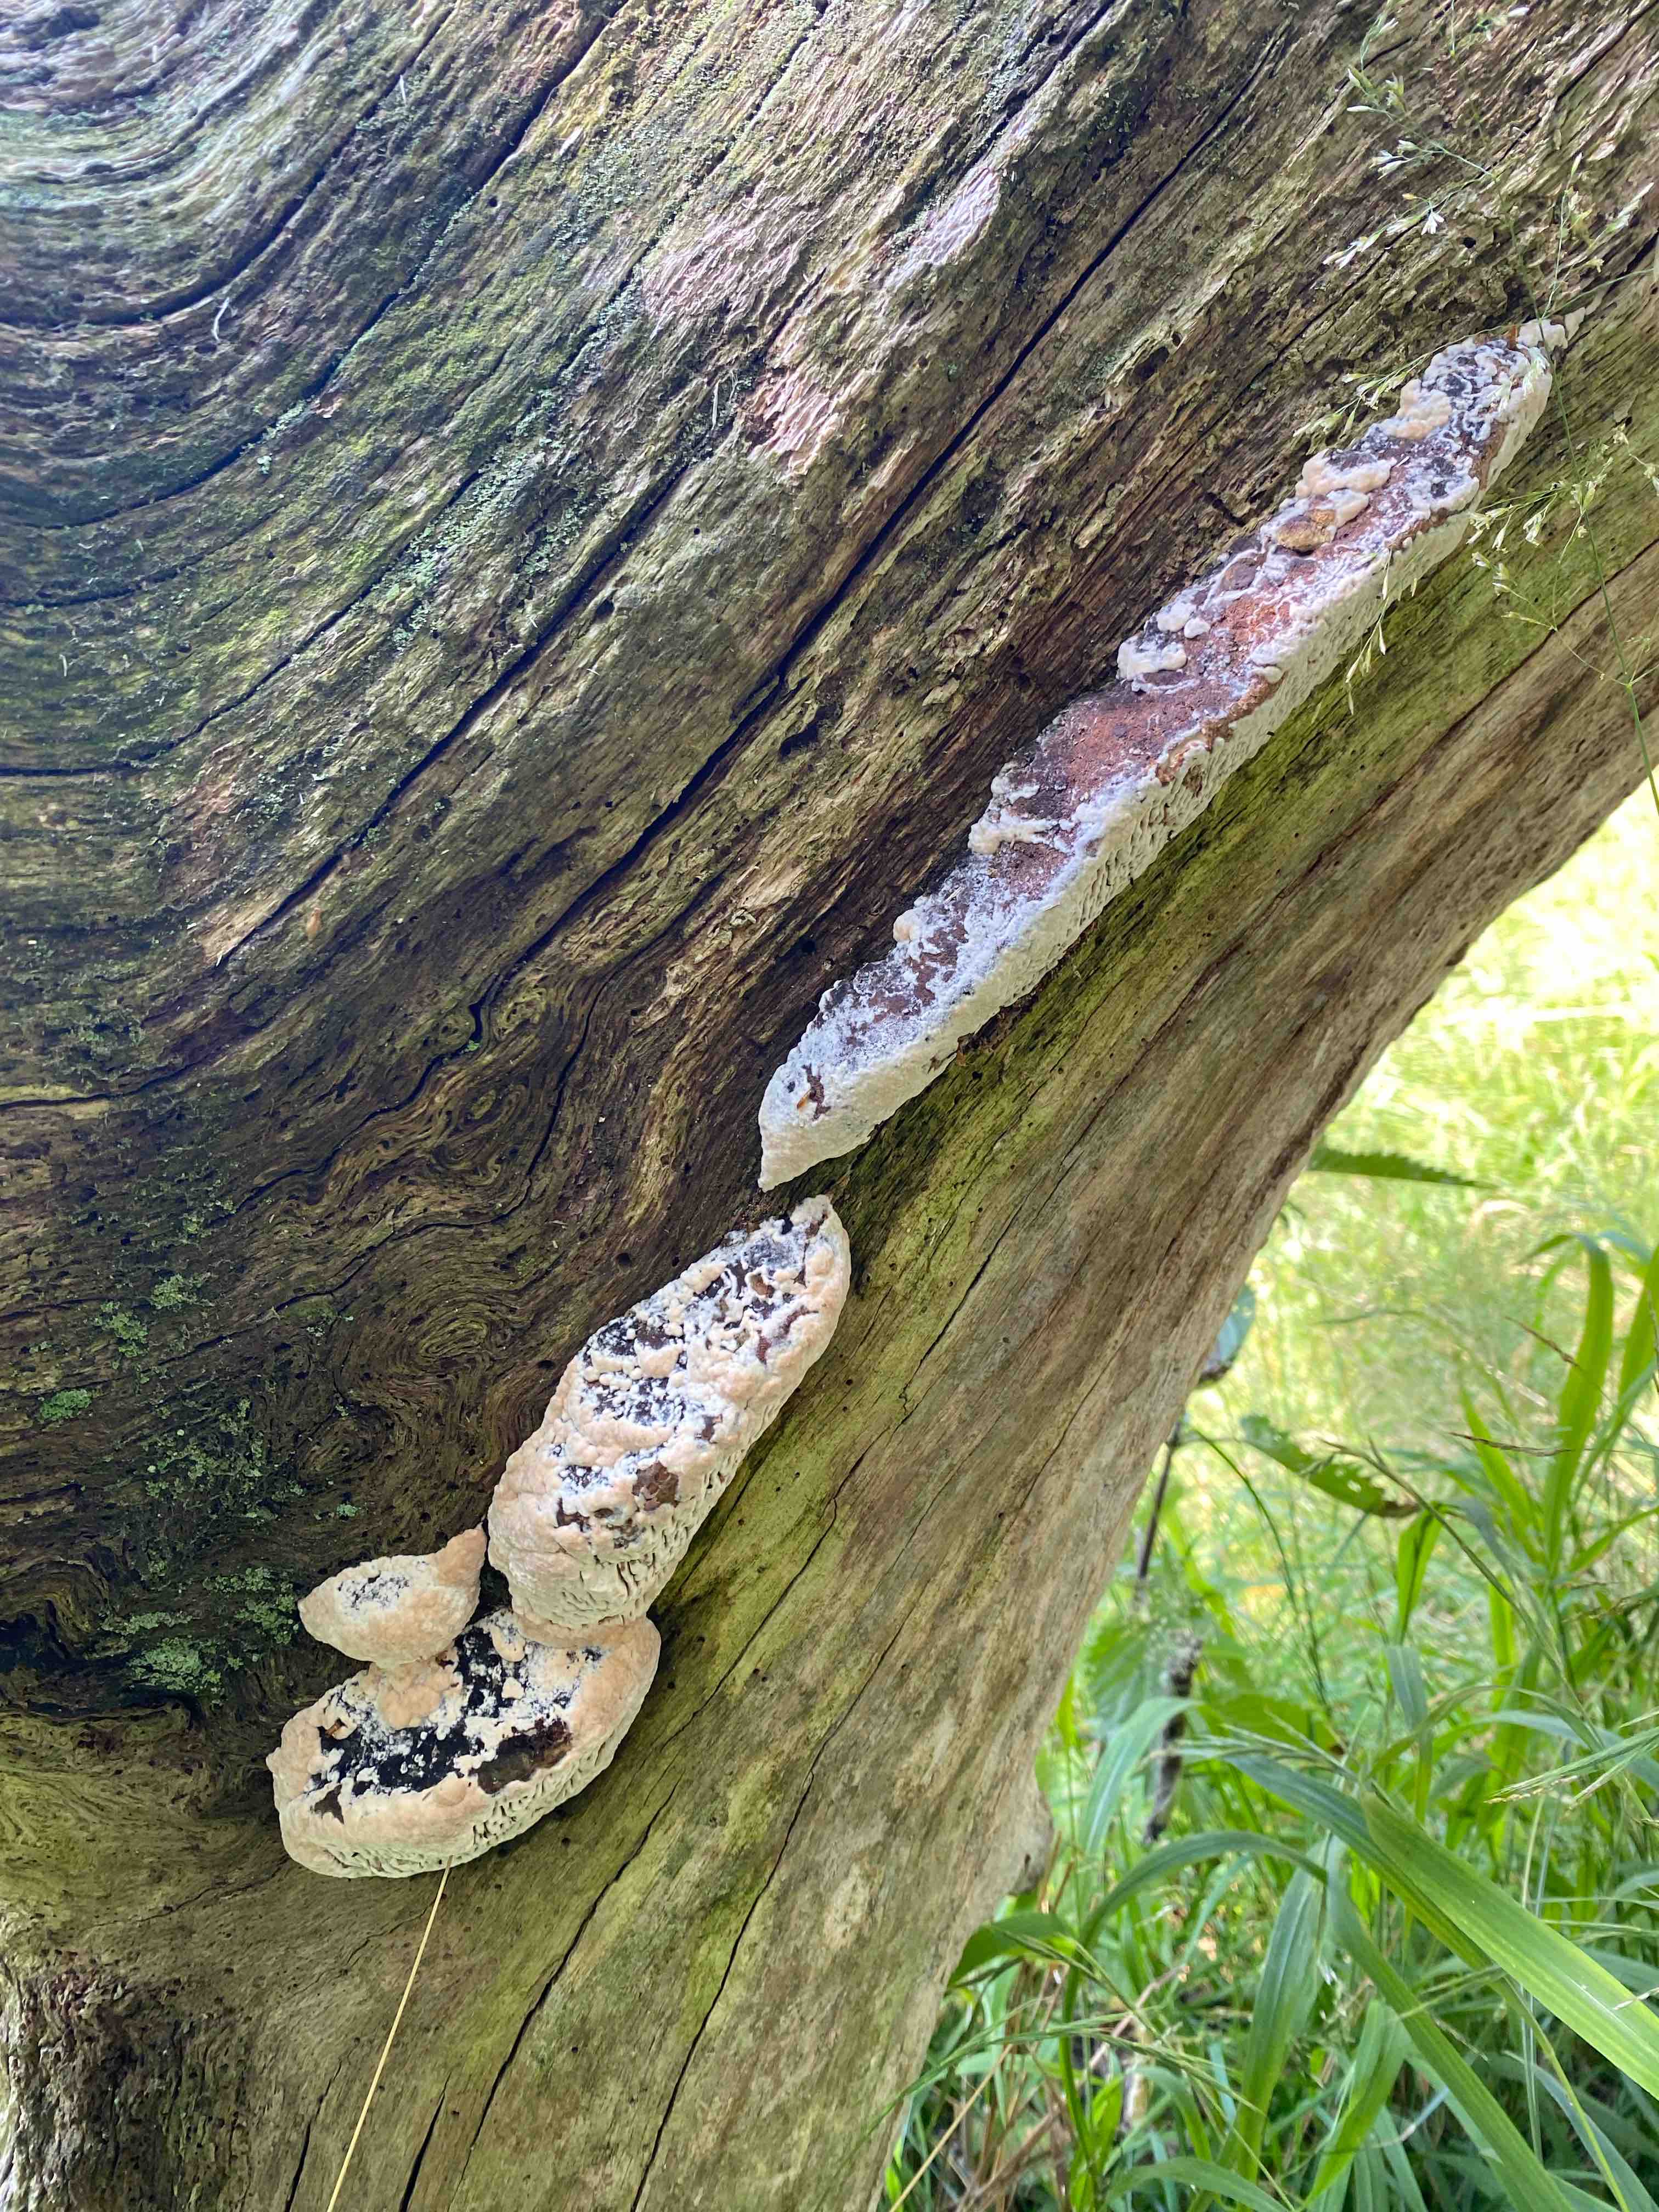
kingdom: Fungi
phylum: Basidiomycota
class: Agaricomycetes
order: Polyporales
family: Fomitopsidaceae
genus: Daedalea
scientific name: Daedalea quercina
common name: ege-labyrintsvamp
